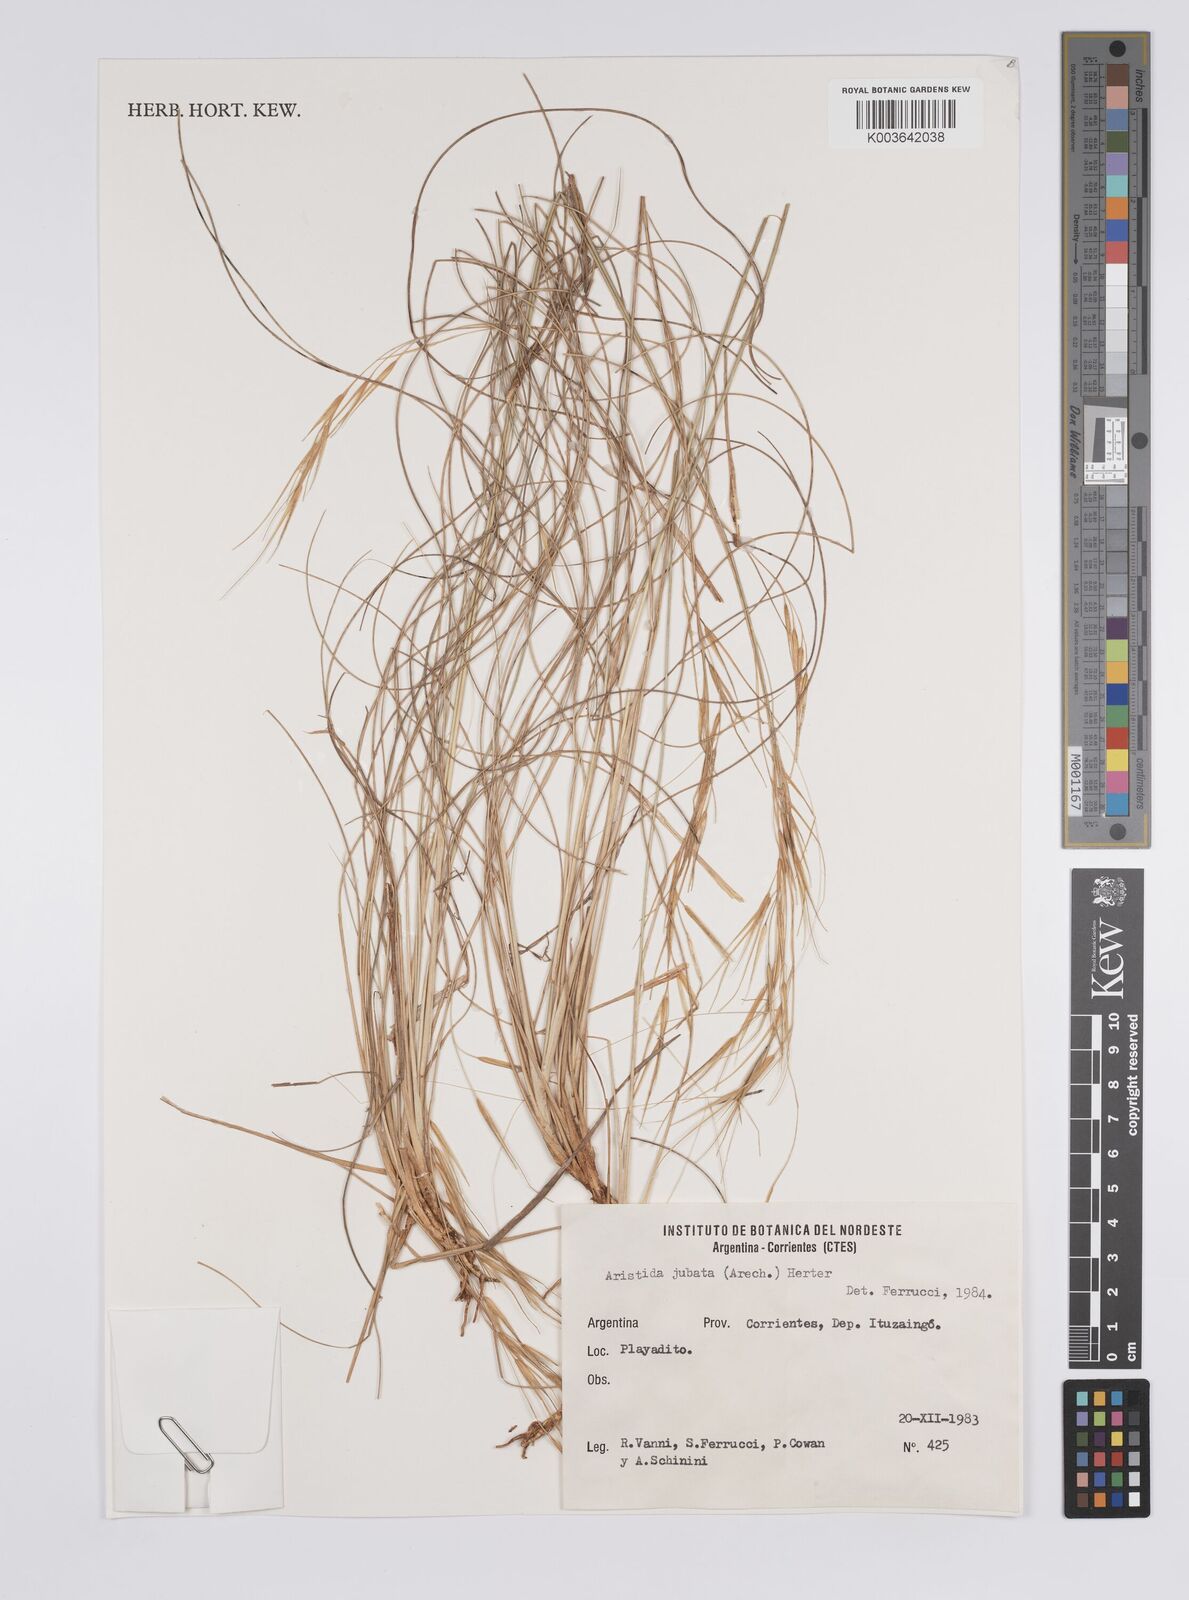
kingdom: Plantae
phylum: Tracheophyta
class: Liliopsida
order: Poales
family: Poaceae
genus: Aristida
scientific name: Aristida pallens
